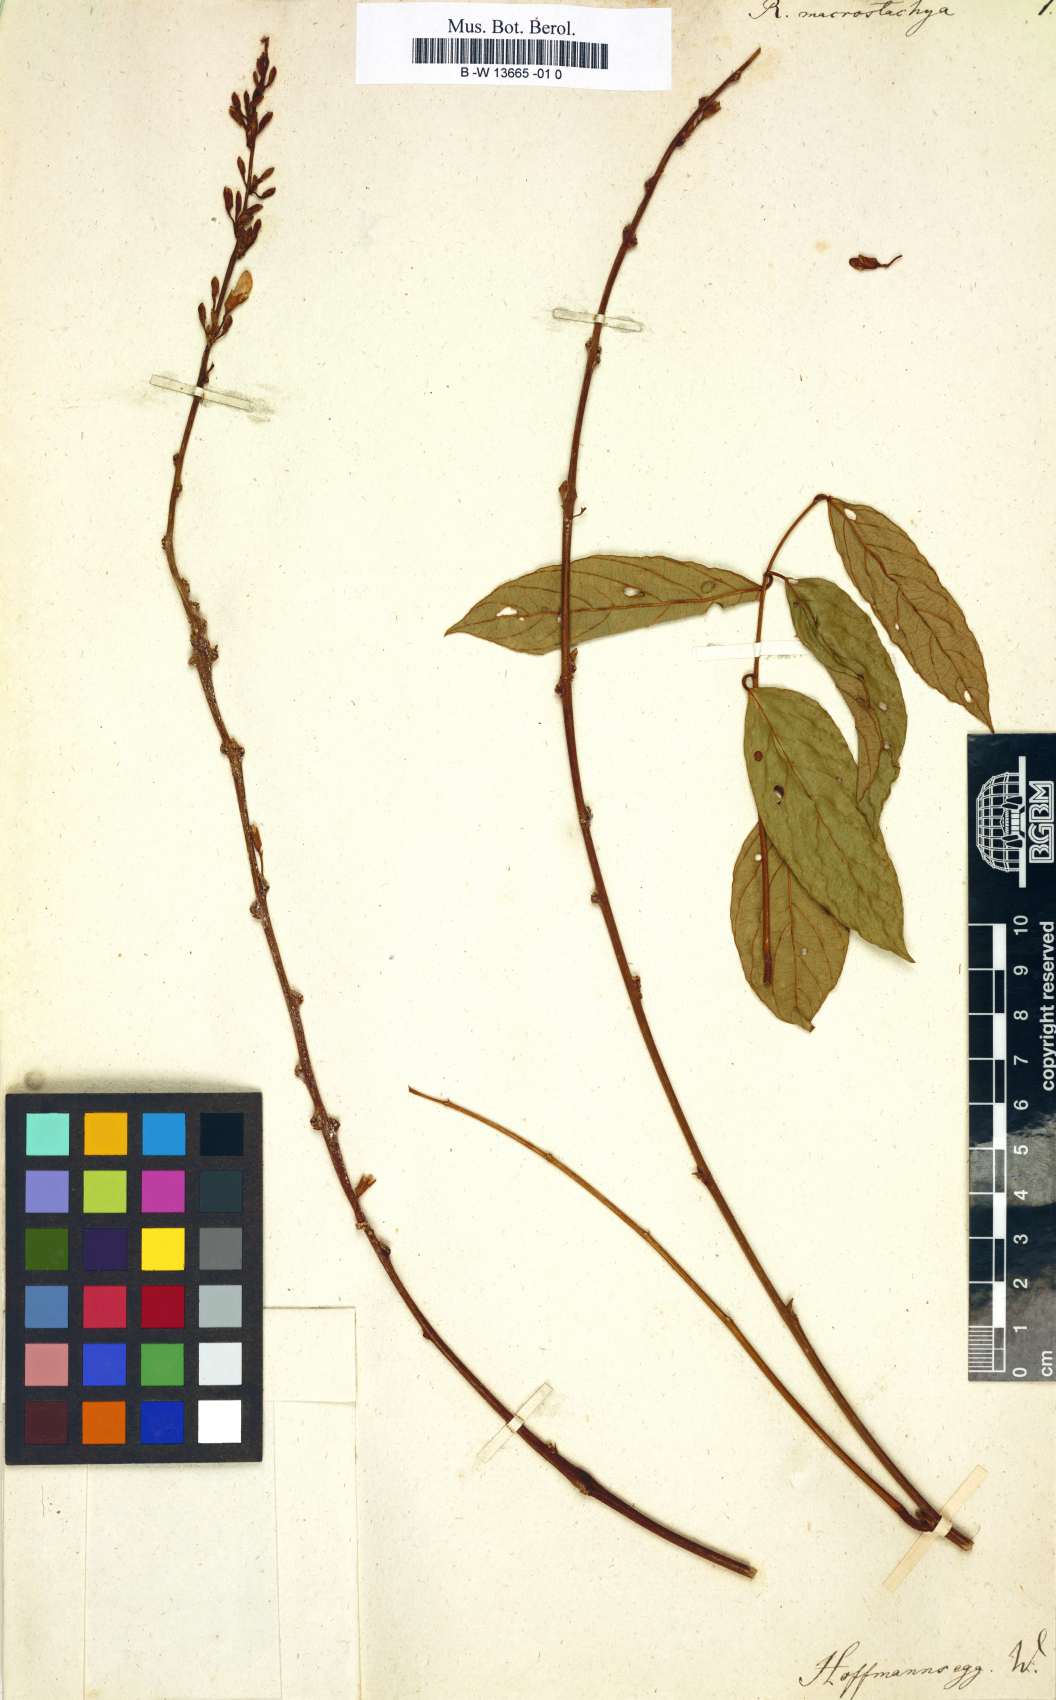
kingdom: Plantae
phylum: Tracheophyta
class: Magnoliopsida
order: Fabales
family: Fabaceae
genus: Robinia
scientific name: Robinia
